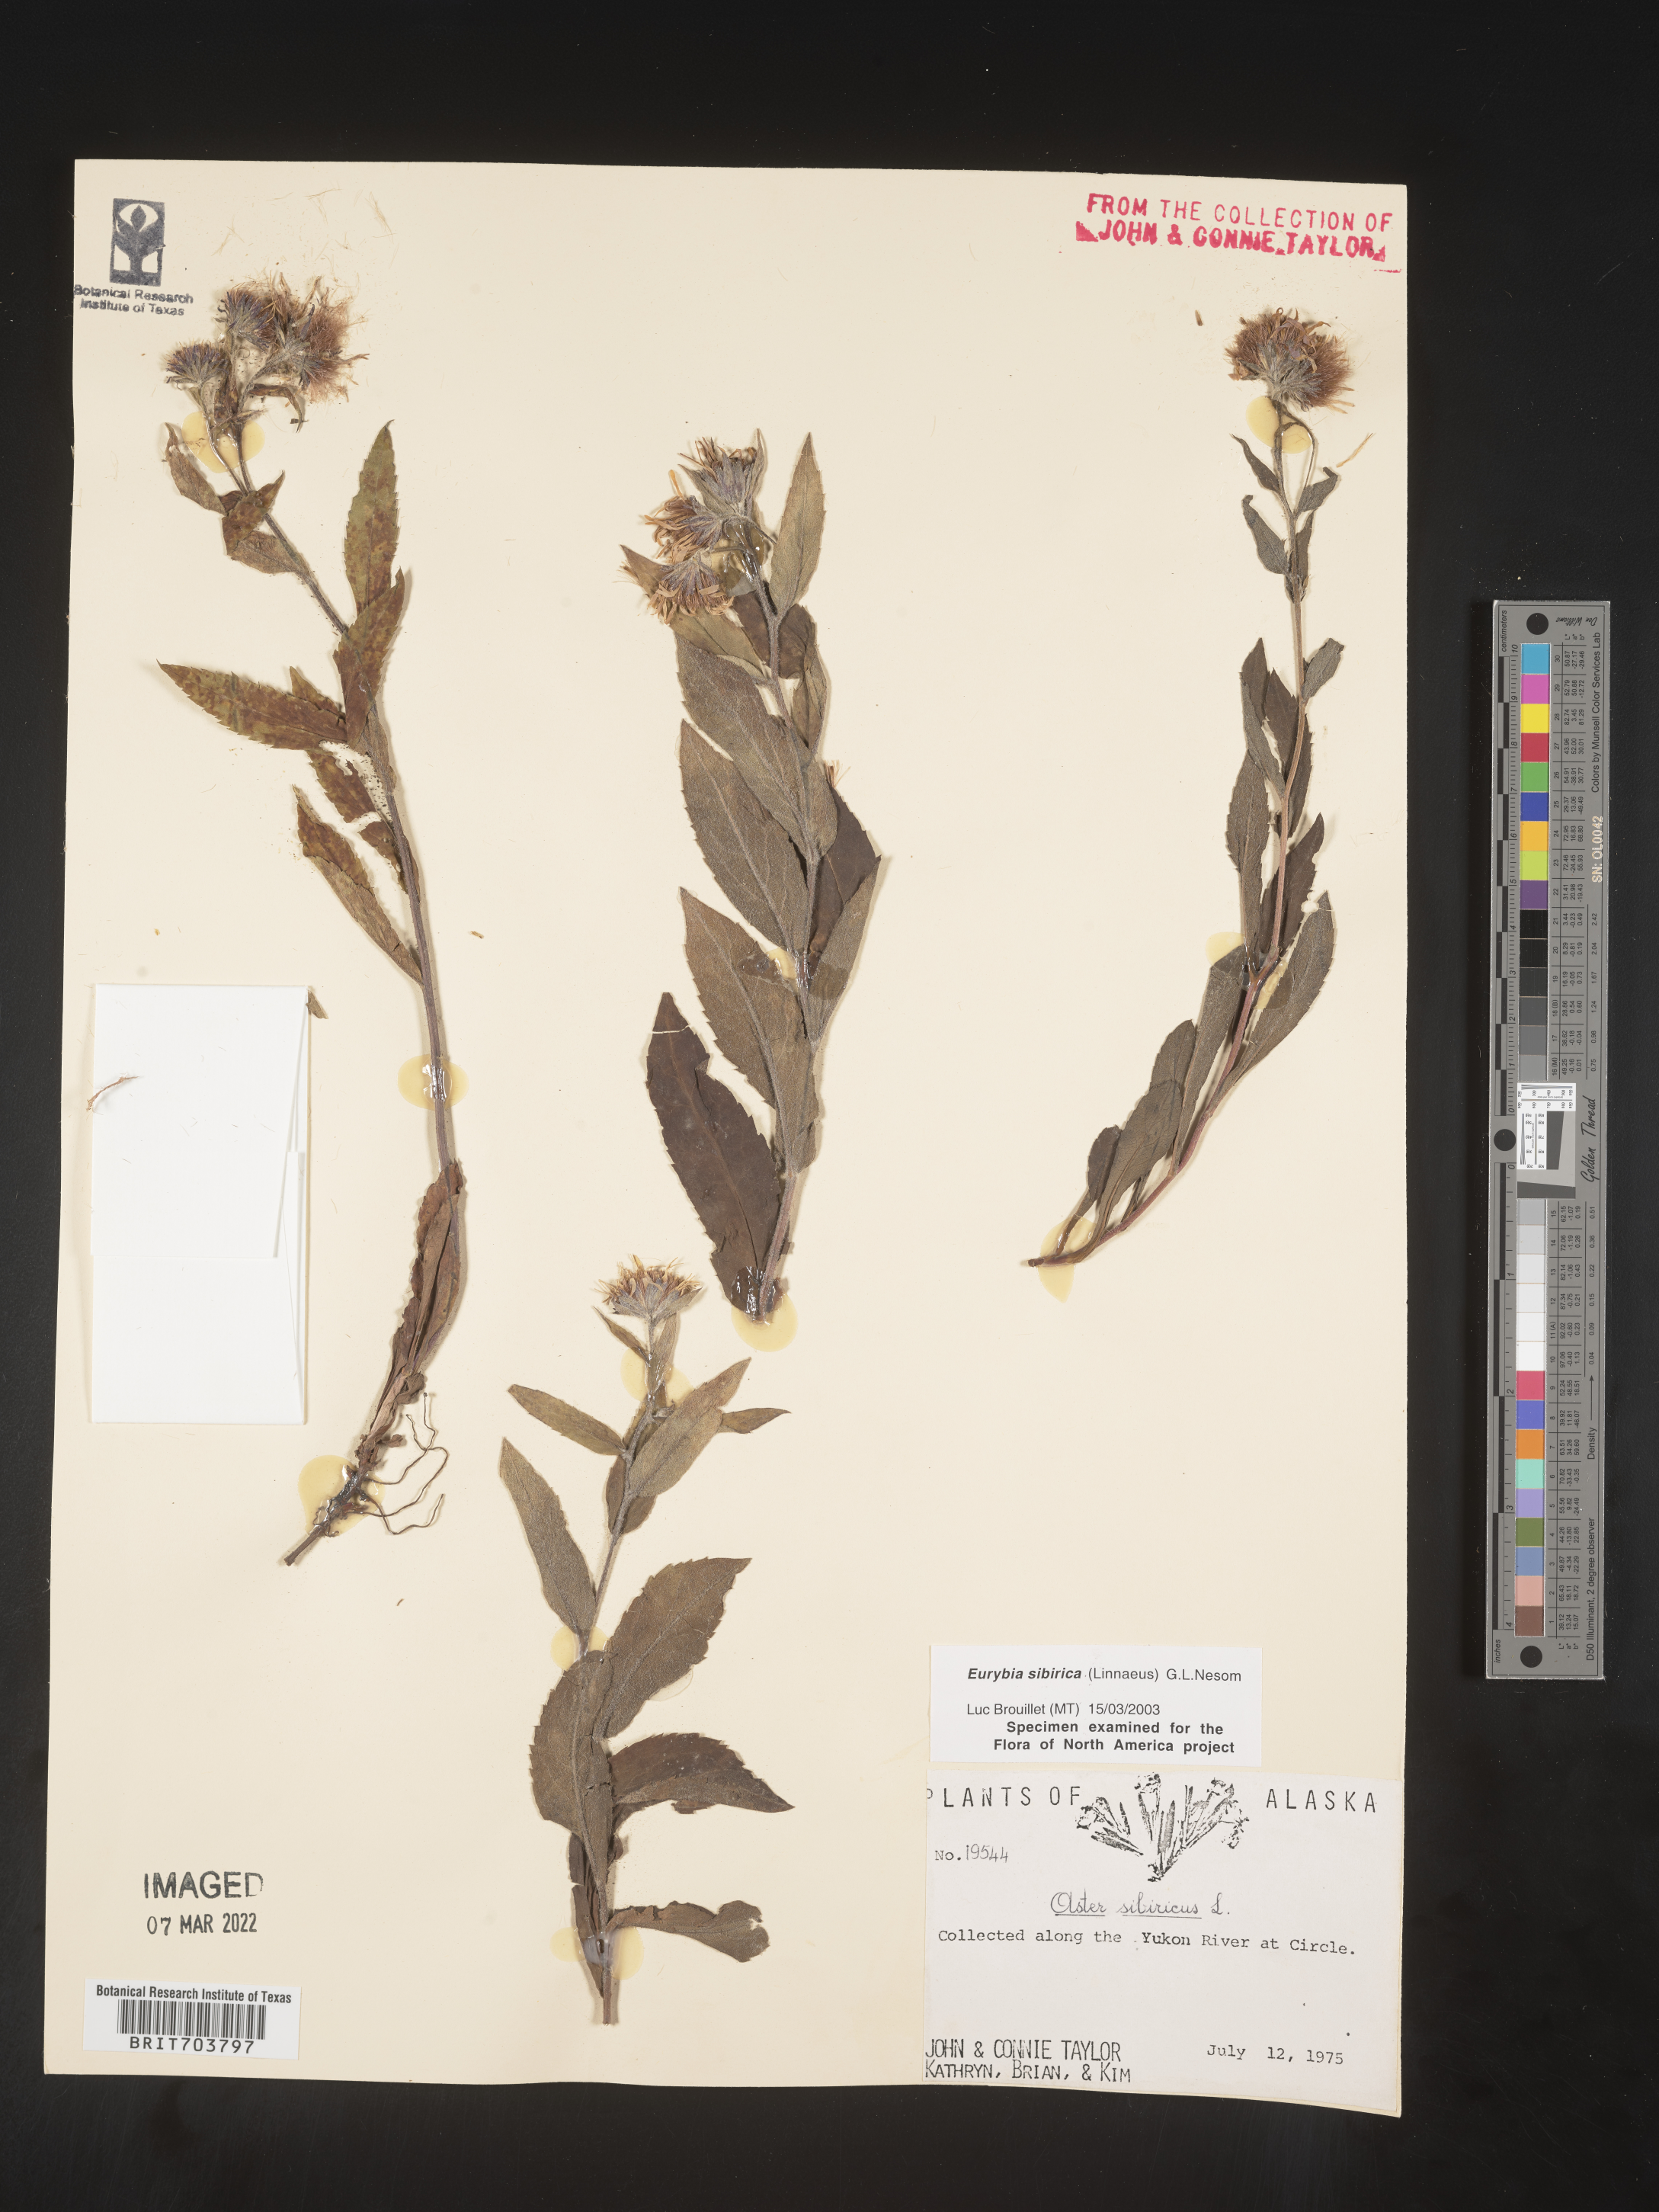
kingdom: Plantae
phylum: Tracheophyta
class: Magnoliopsida
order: Asterales
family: Asteraceae
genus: Eurybia
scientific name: Eurybia sibirica
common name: Arctic aster
